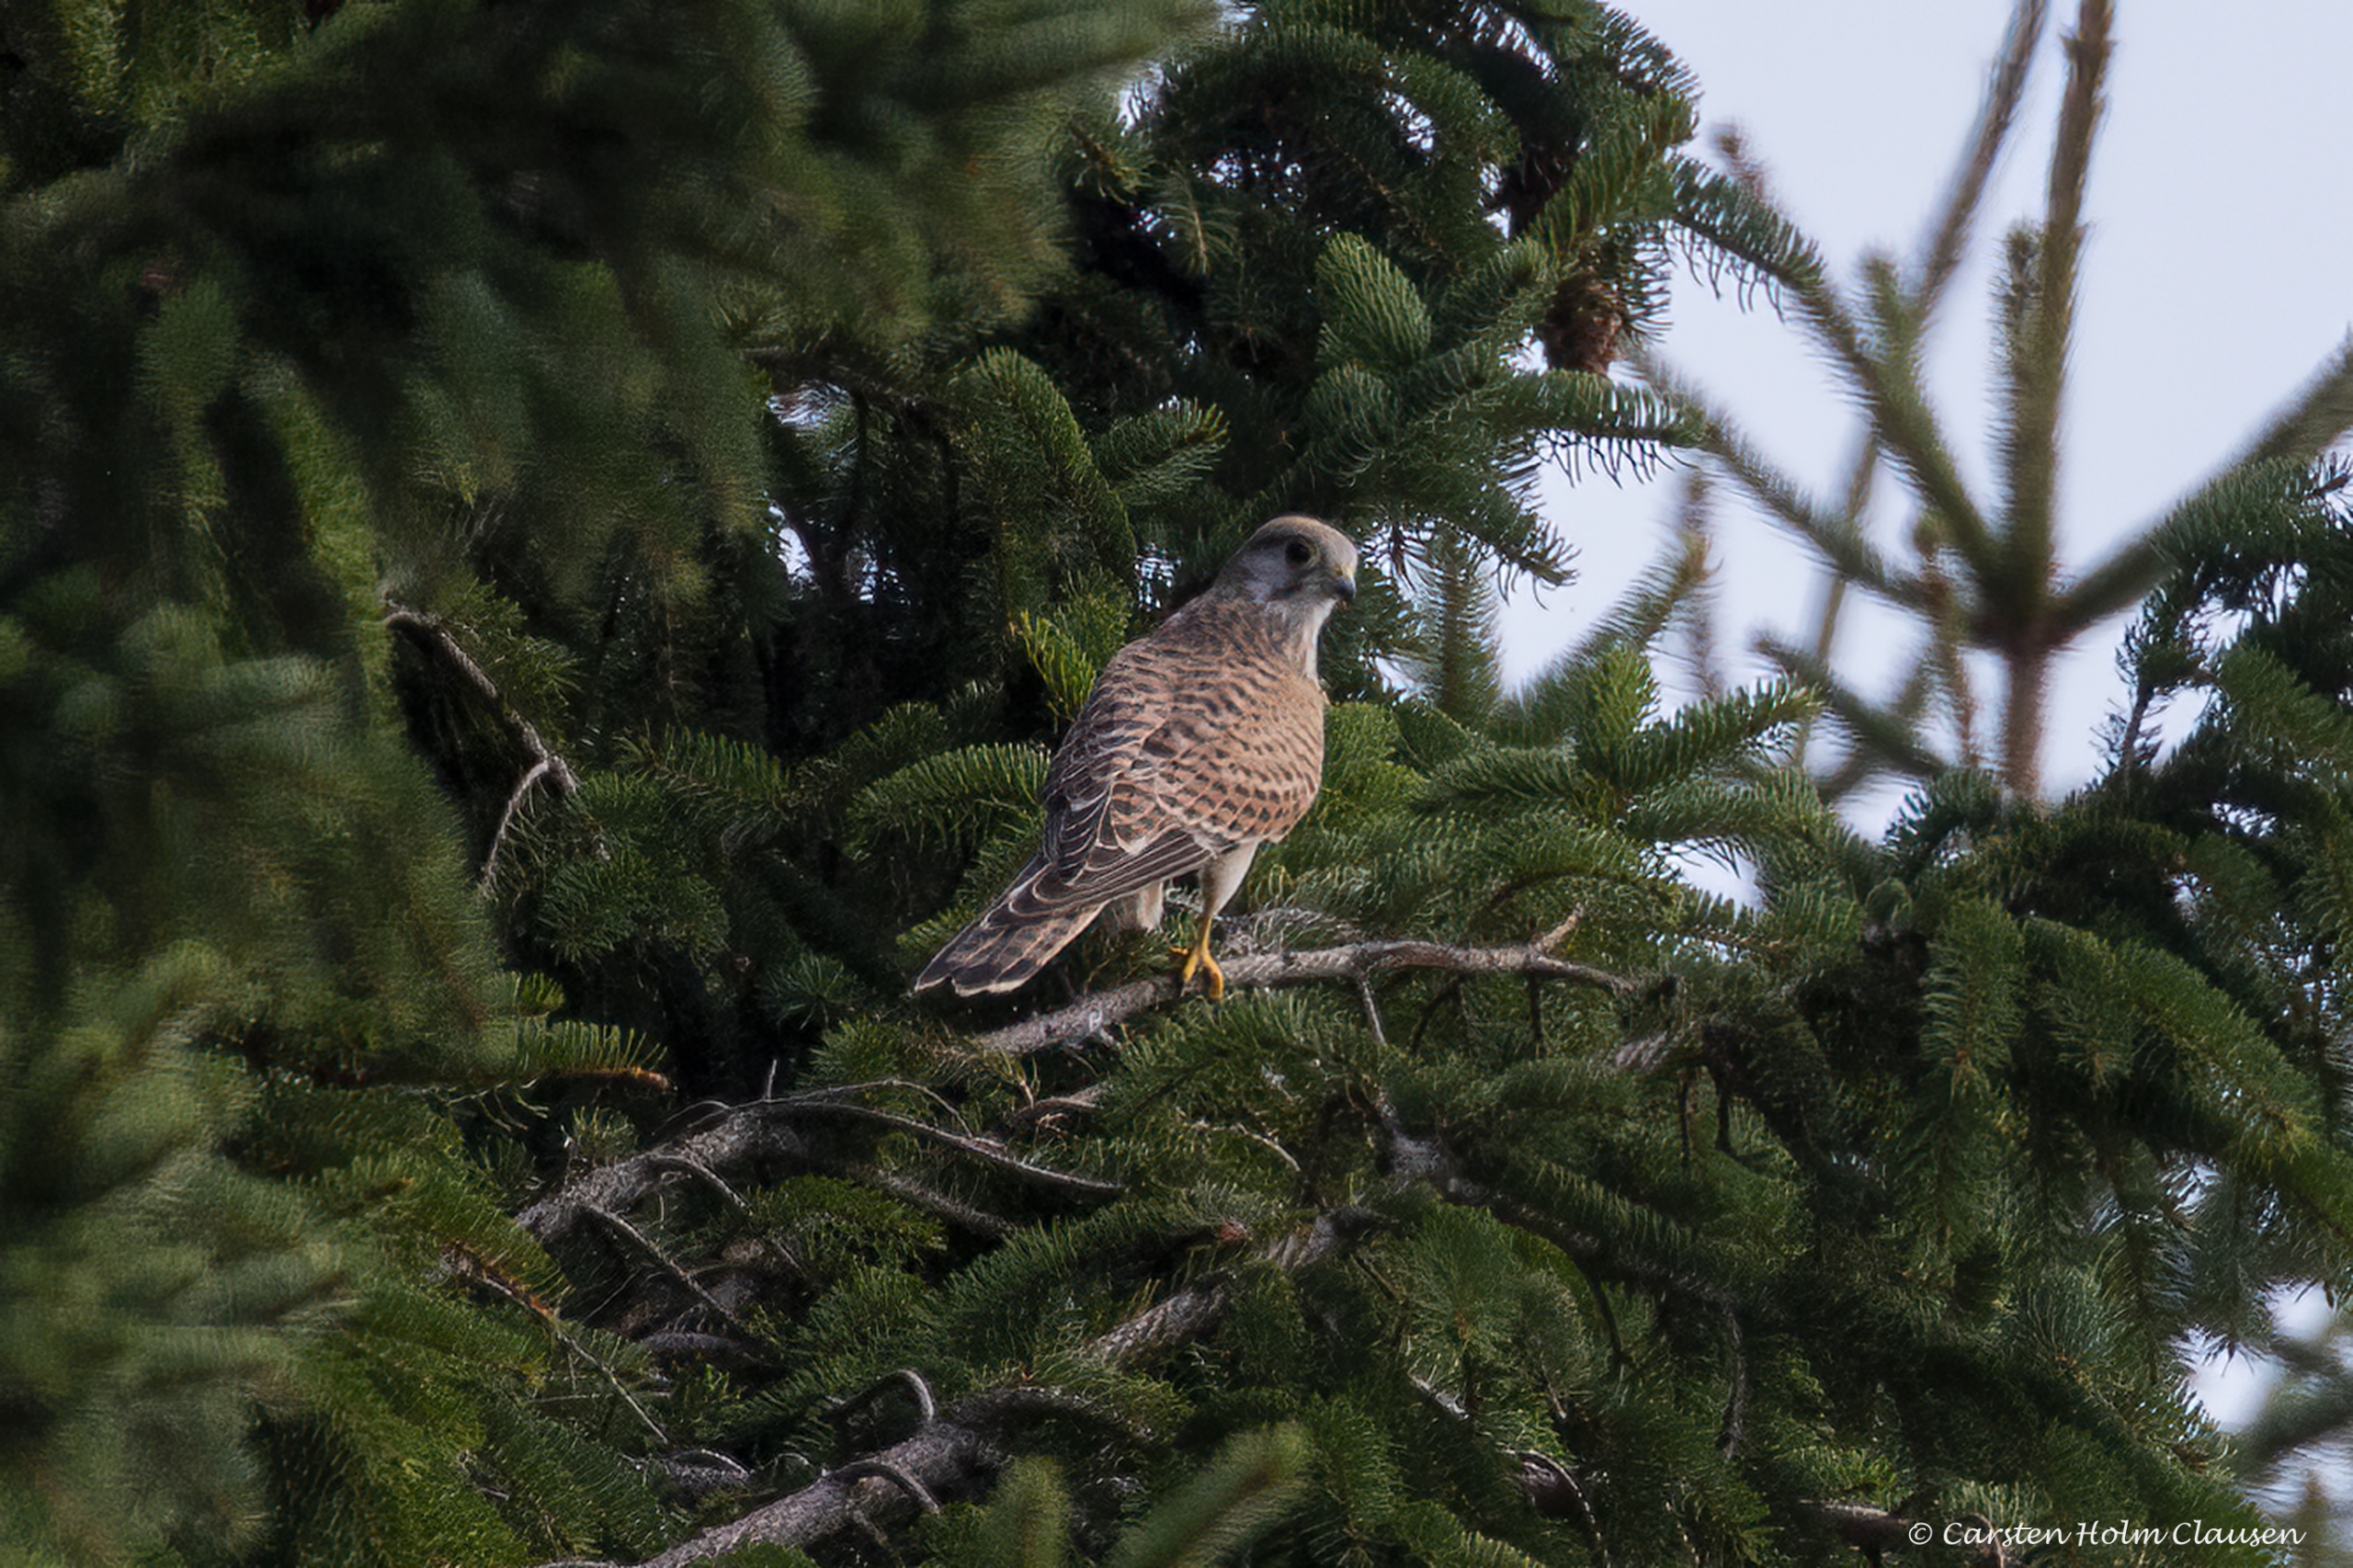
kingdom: Animalia
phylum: Chordata
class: Aves
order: Falconiformes
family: Falconidae
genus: Falco
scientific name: Falco tinnunculus
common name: Tårnfalk
